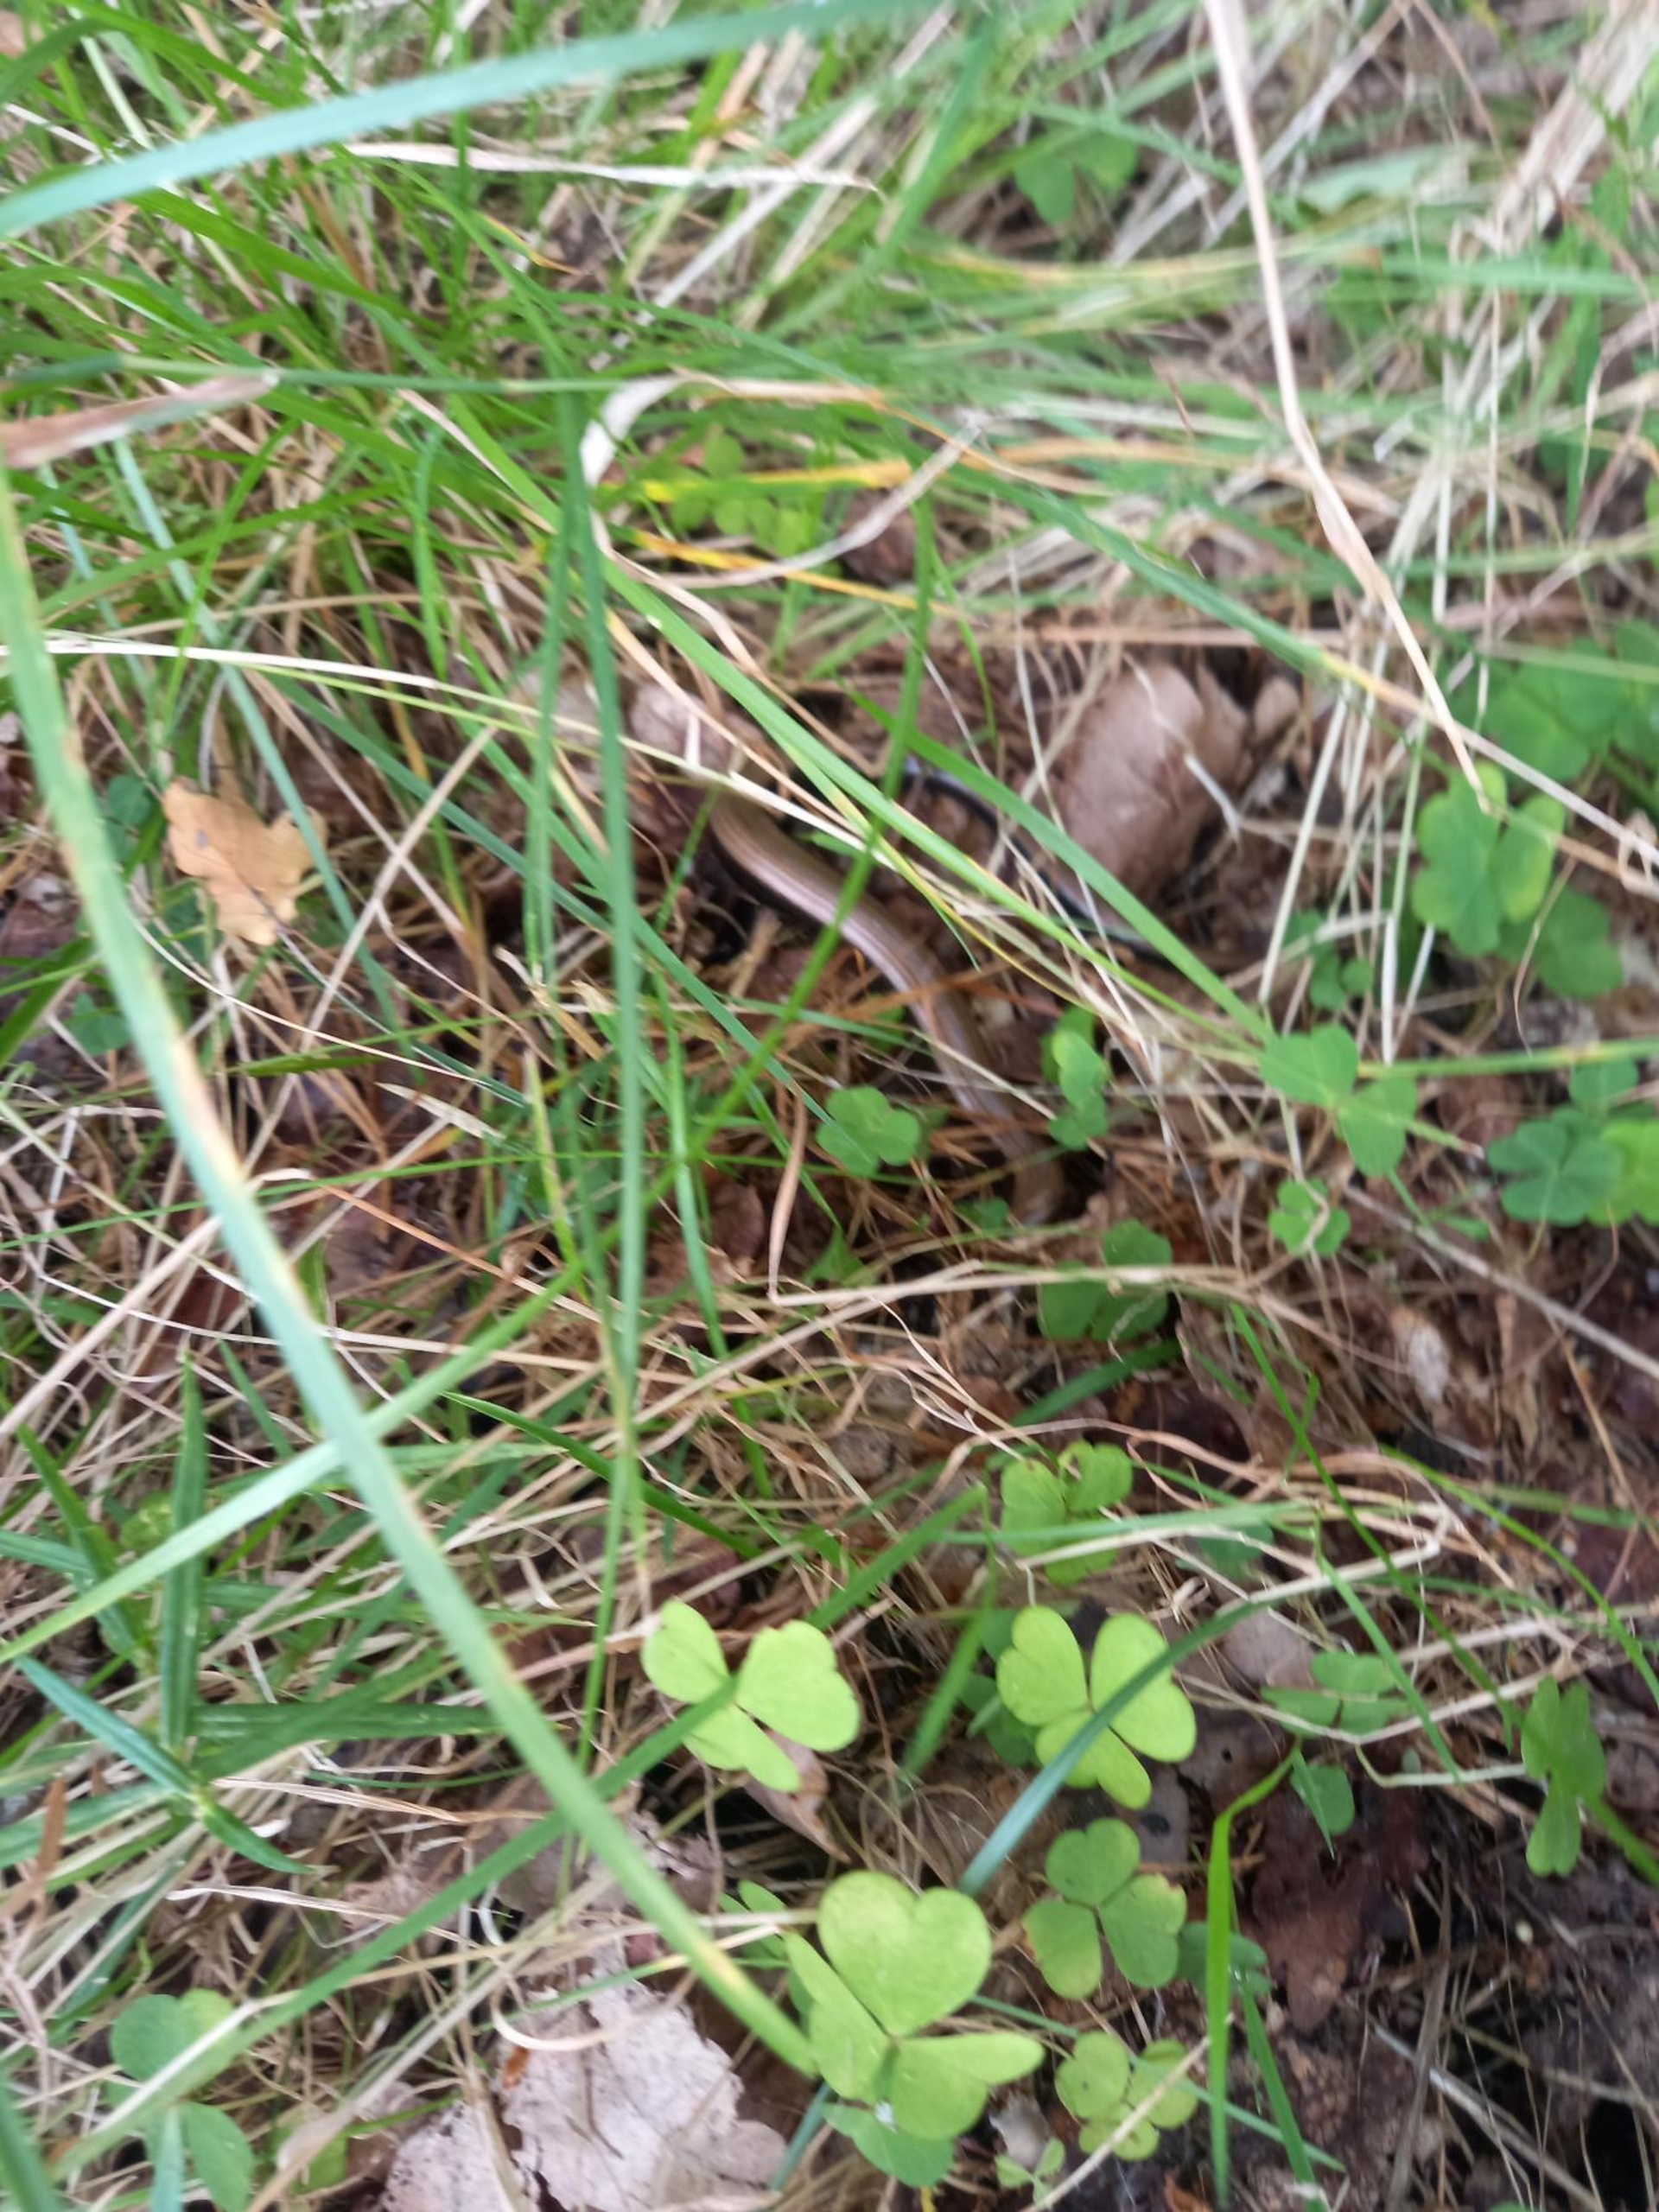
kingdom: Animalia
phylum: Chordata
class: Squamata
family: Anguidae
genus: Anguis
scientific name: Anguis fragilis
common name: Stålorm
